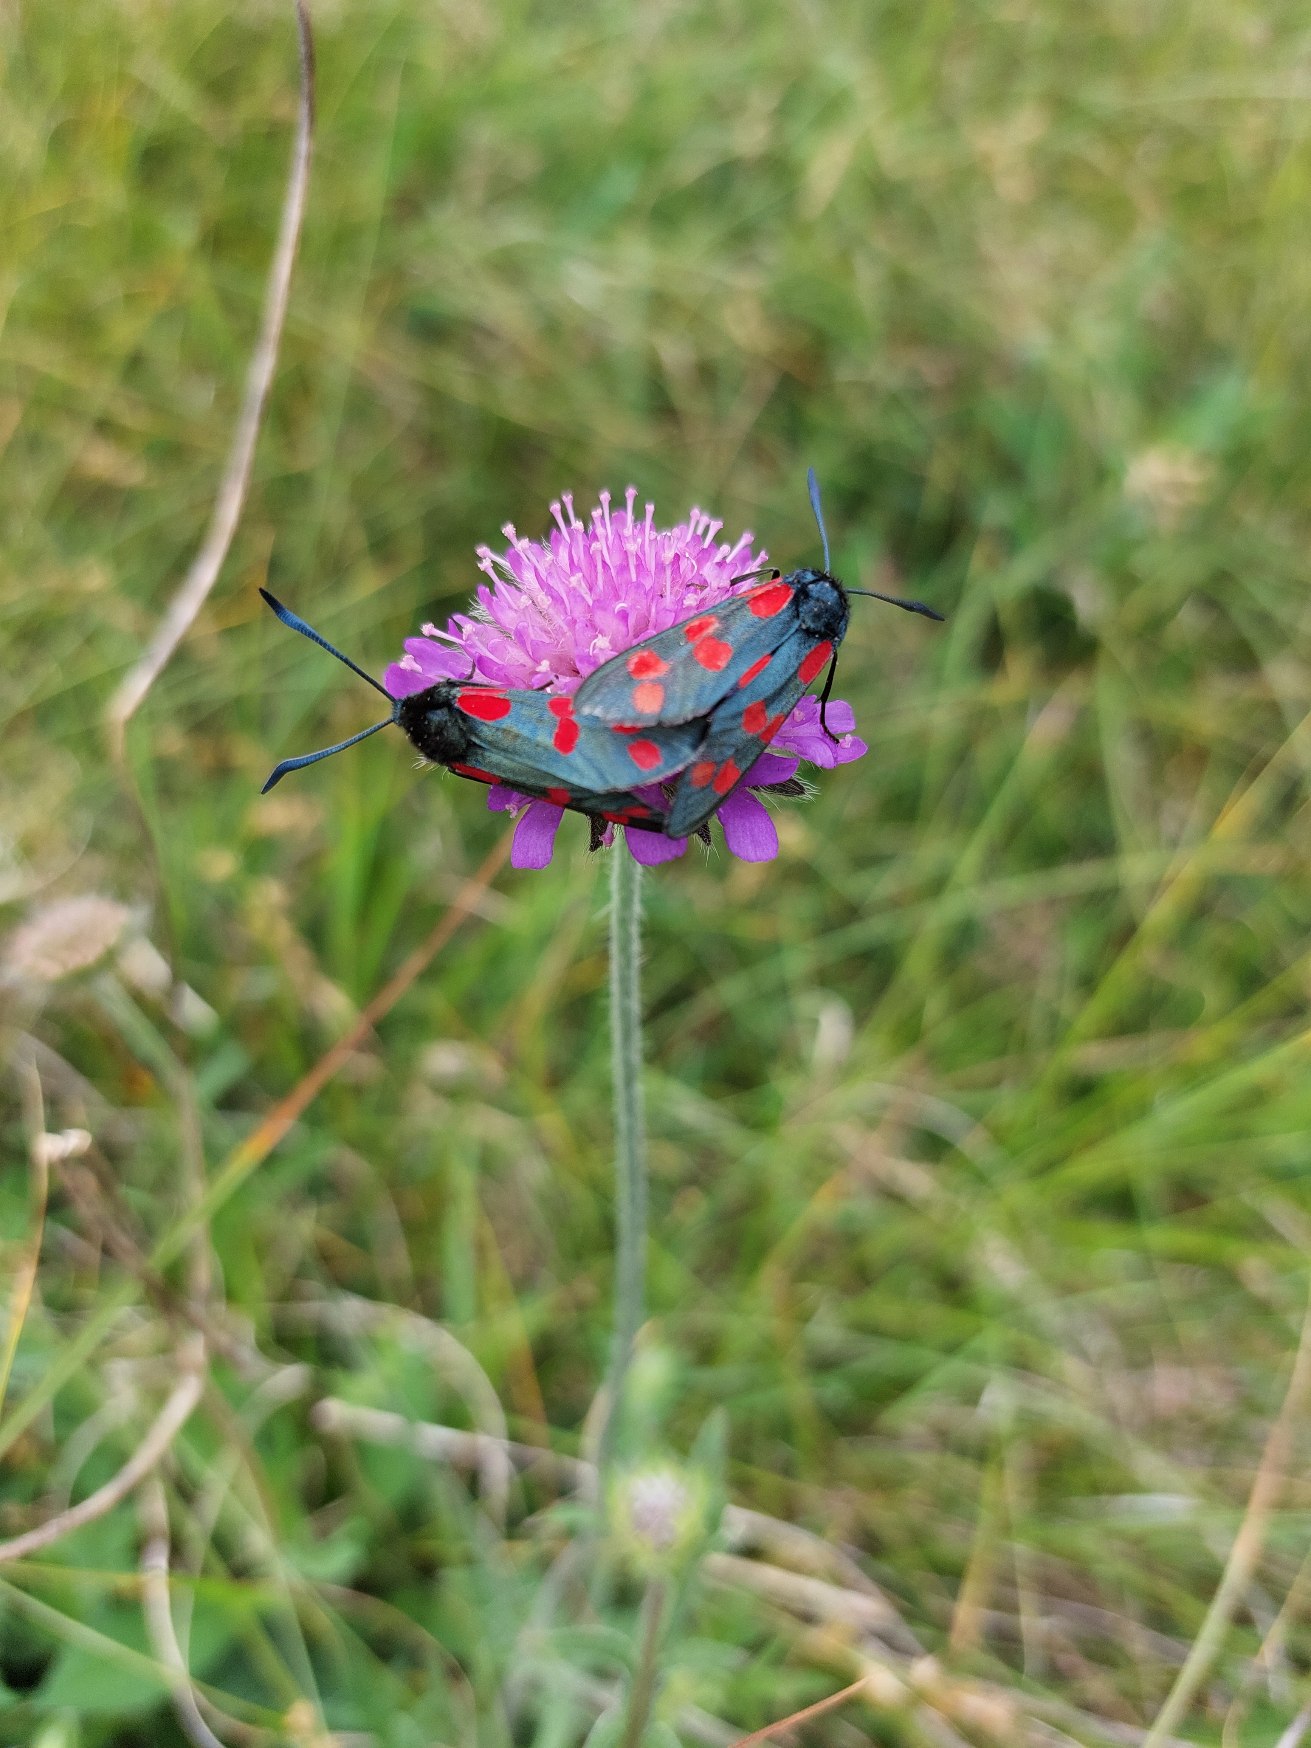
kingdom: Animalia
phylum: Arthropoda
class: Insecta
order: Lepidoptera
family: Zygaenidae
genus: Zygaena
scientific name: Zygaena filipendulae
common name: Seksplettet køllesværmer
